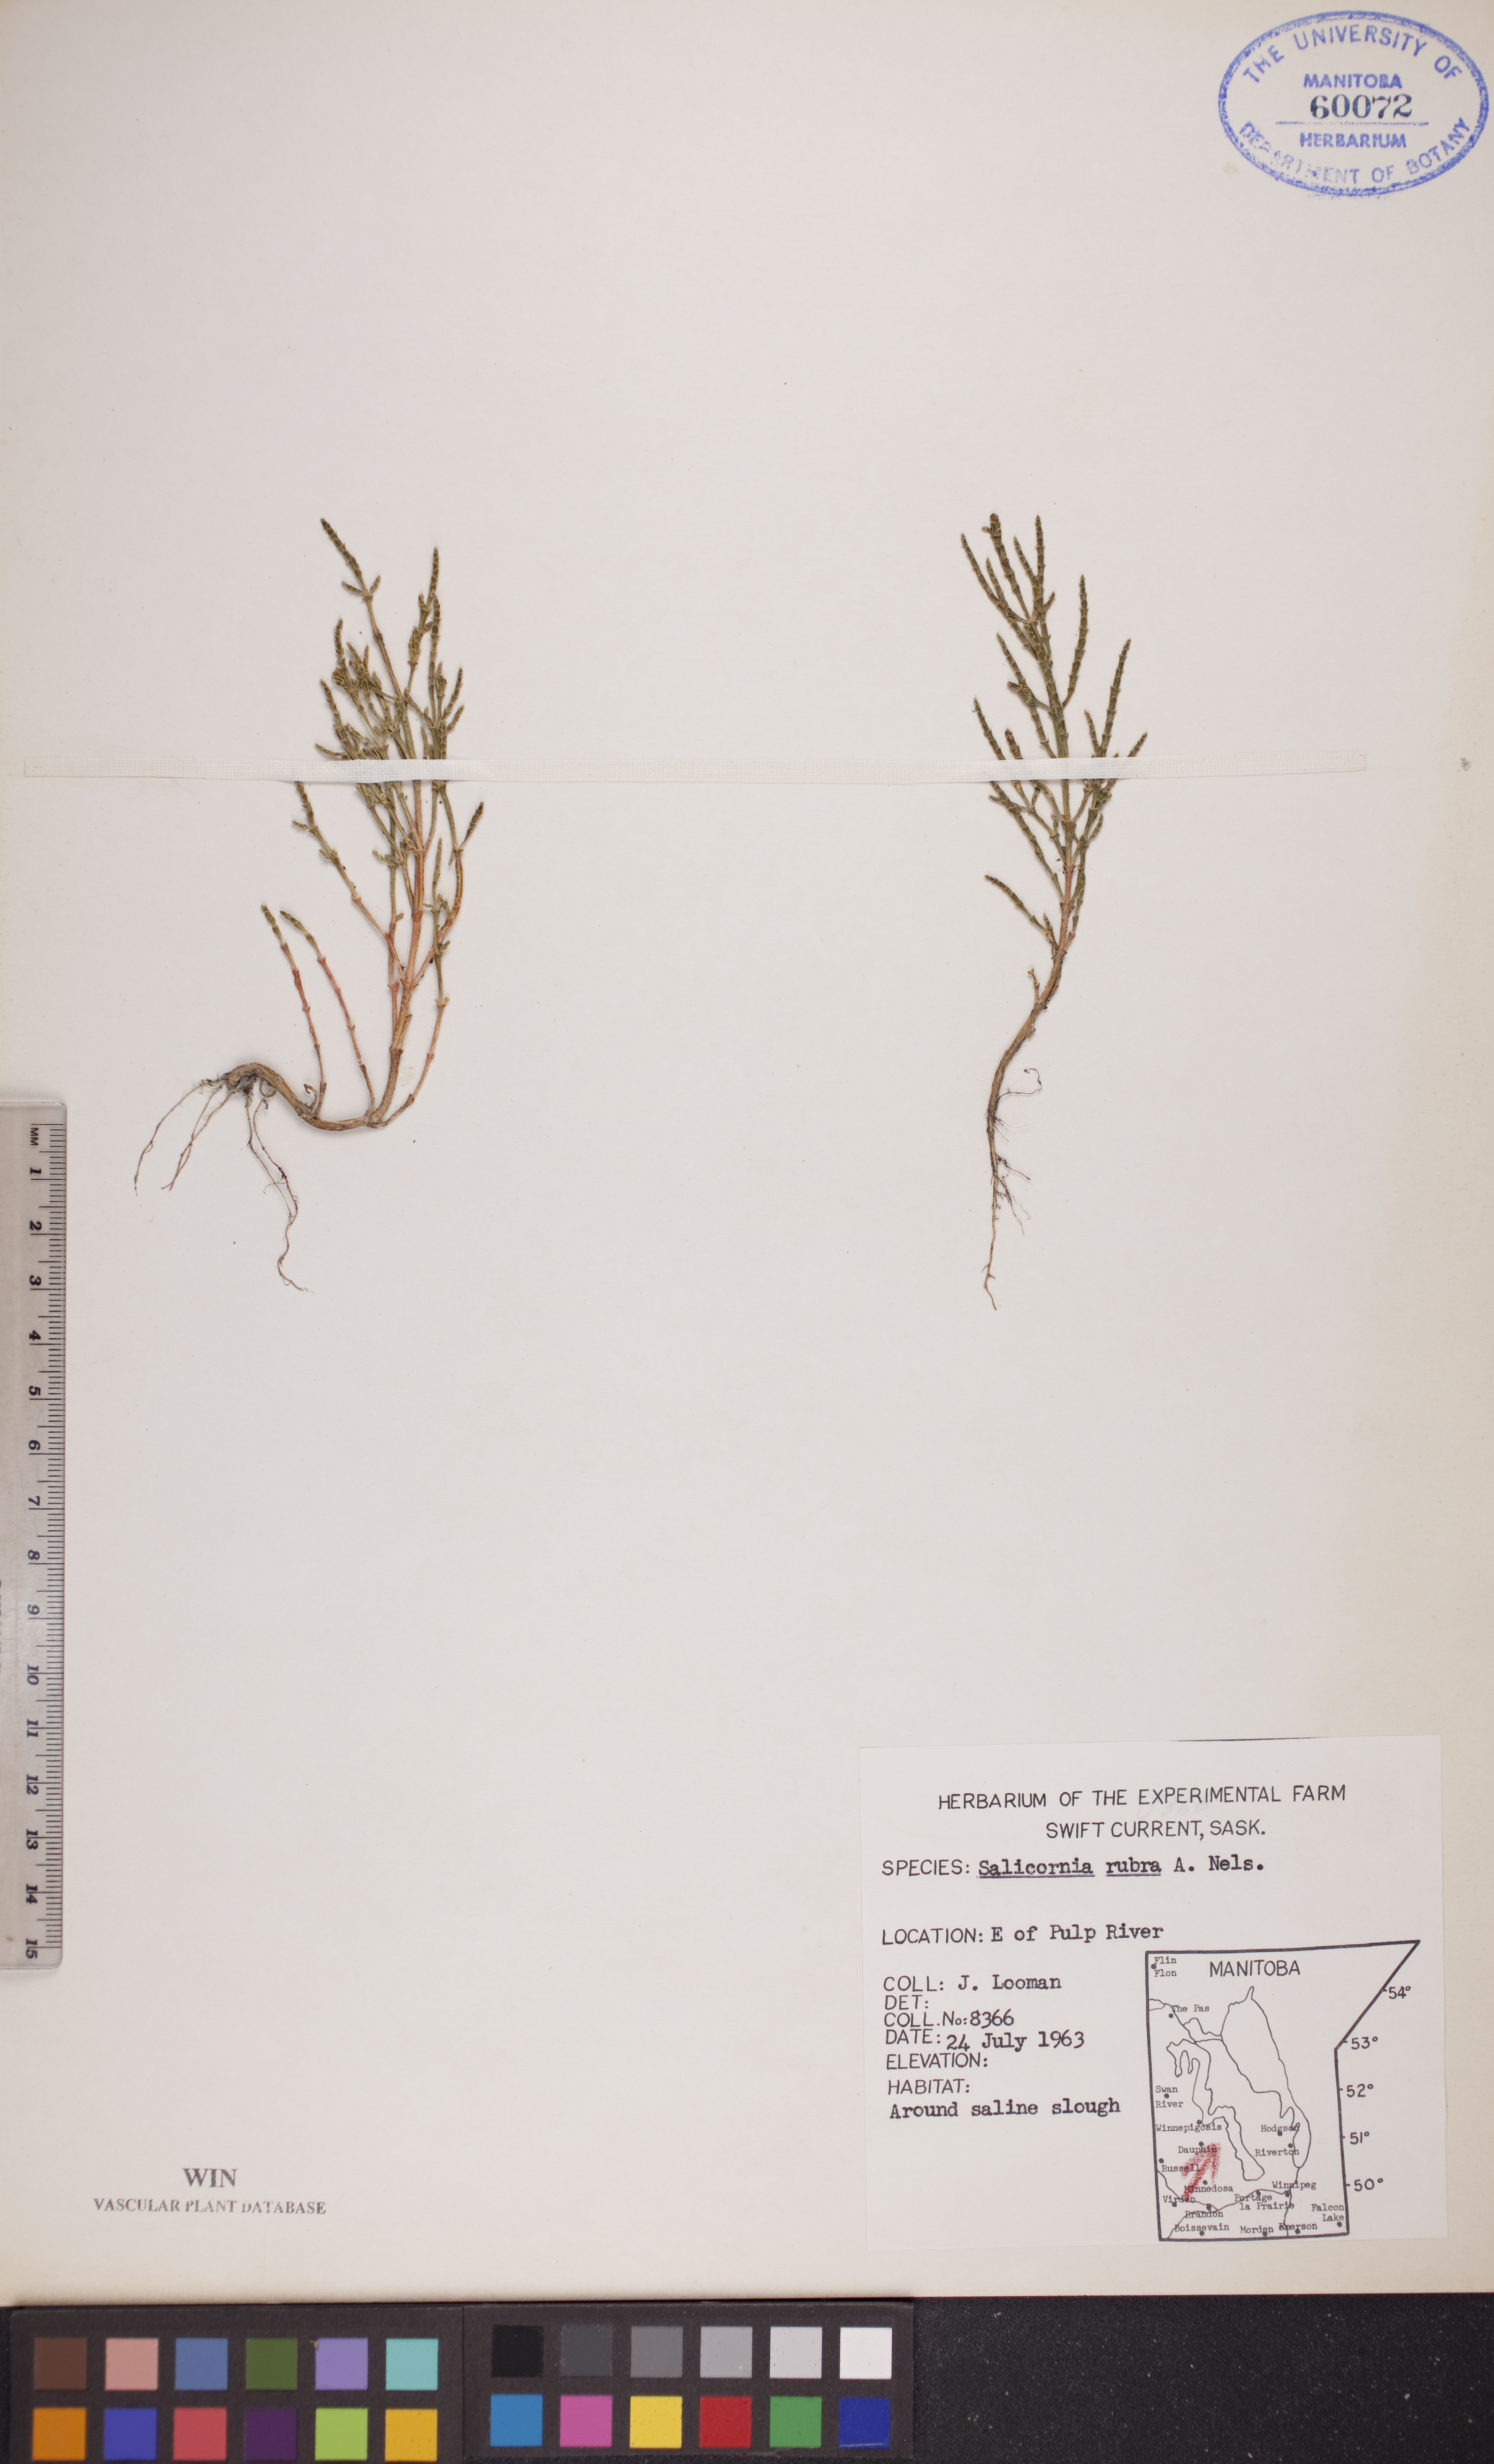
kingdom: Plantae
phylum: Tracheophyta
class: Magnoliopsida
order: Caryophyllales
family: Amaranthaceae
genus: Salicornia
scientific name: Salicornia rubra
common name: Red glasswort
